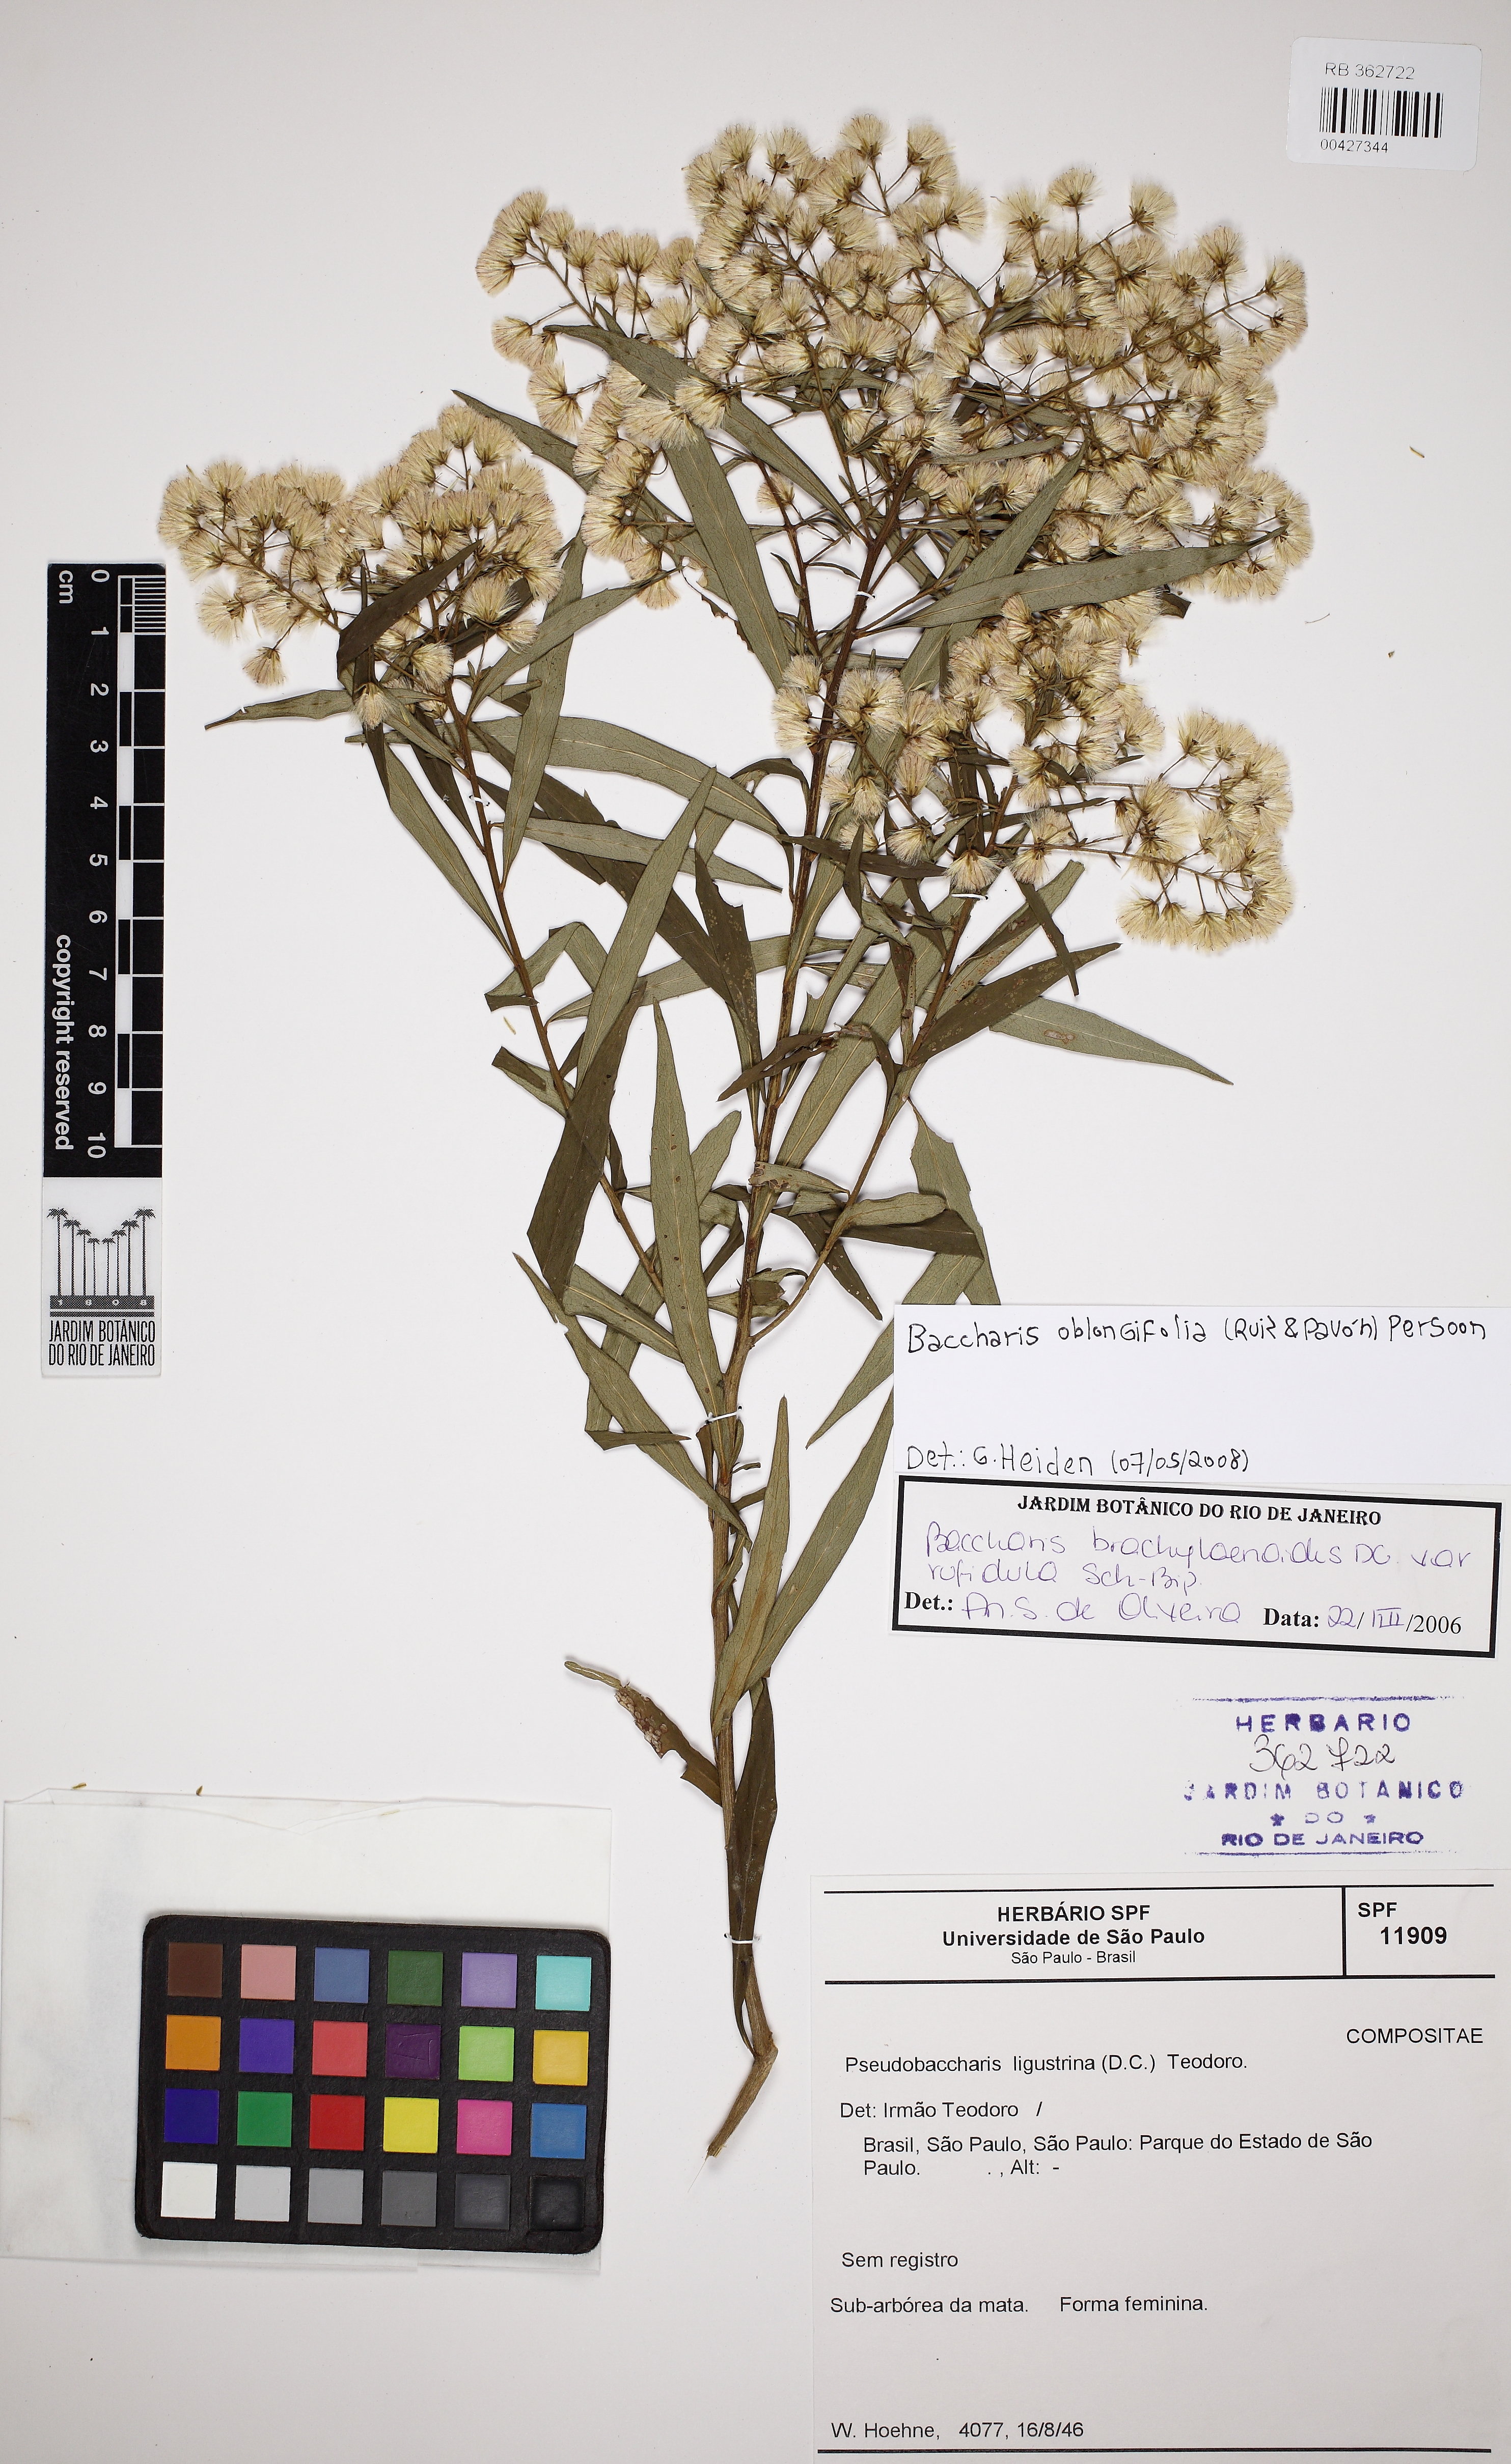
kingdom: Plantae
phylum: Tracheophyta
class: Magnoliopsida
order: Asterales
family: Asteraceae
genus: Baccharis
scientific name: Baccharis oblongifolia
